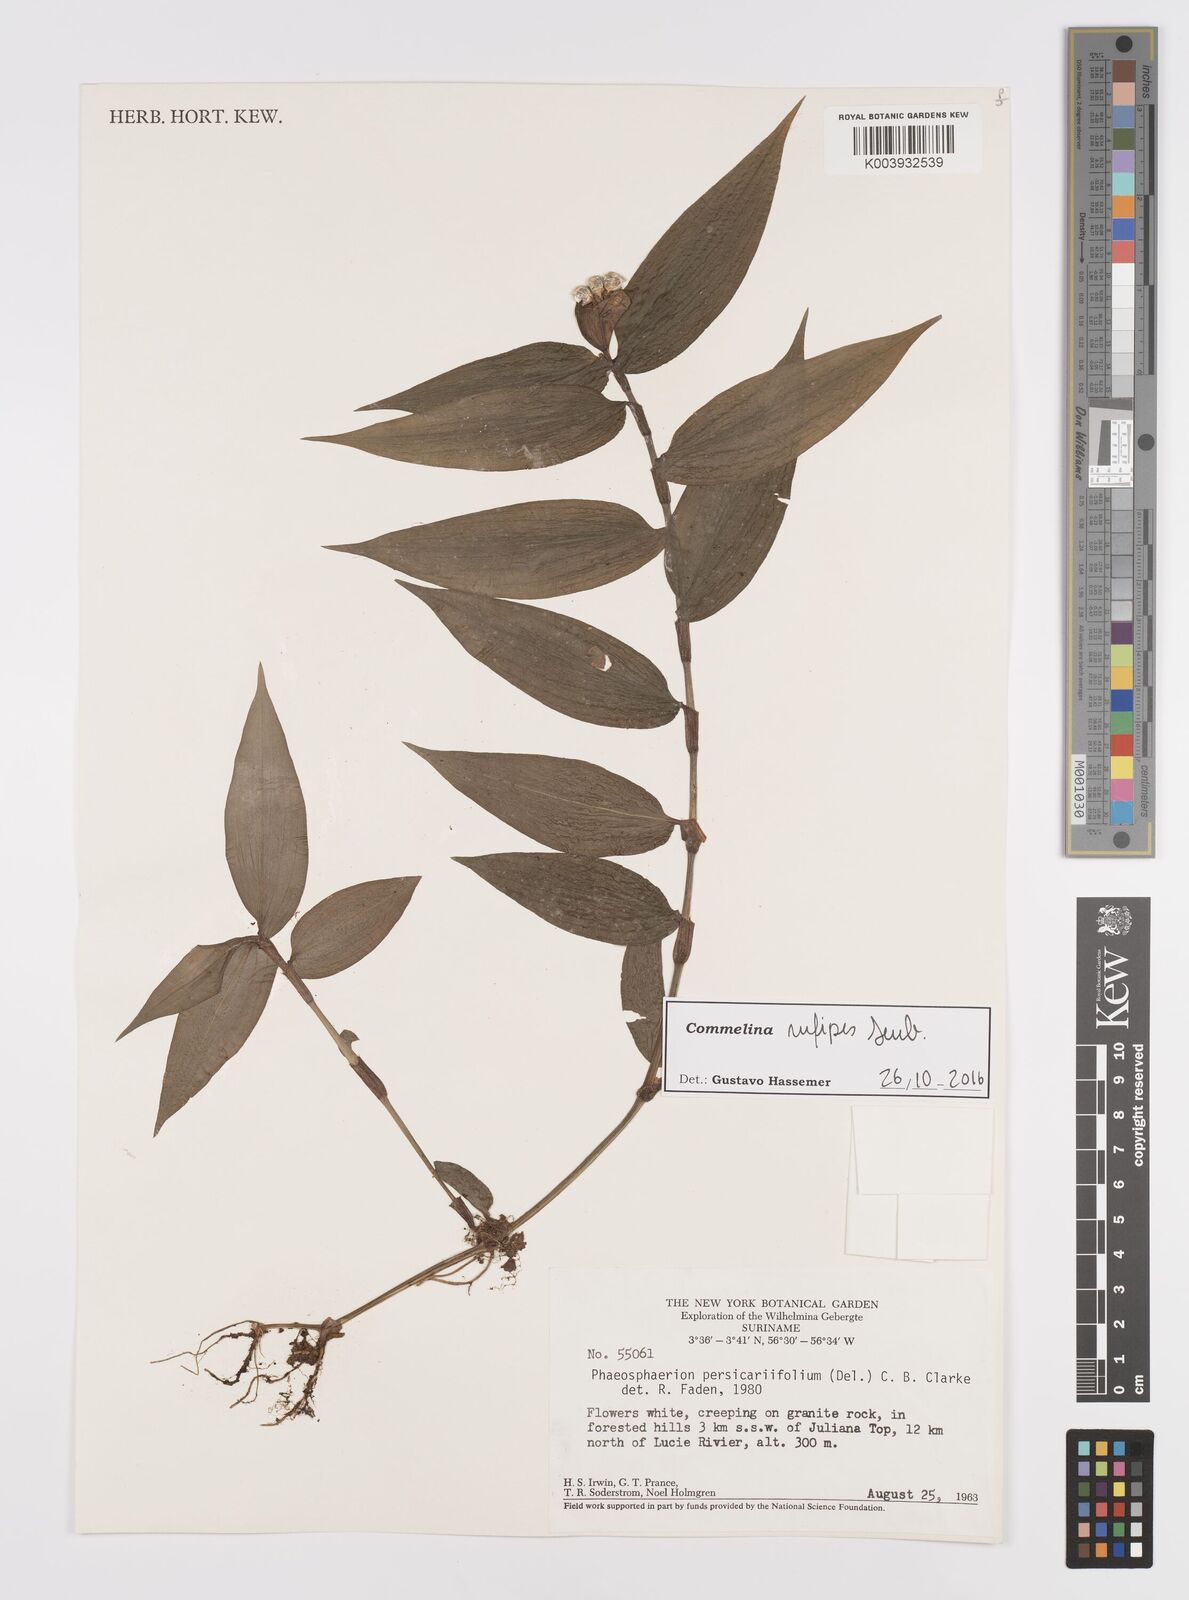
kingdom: Plantae
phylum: Tracheophyta
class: Liliopsida
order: Commelinales
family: Commelinaceae
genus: Commelina
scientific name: Commelina rufipes
